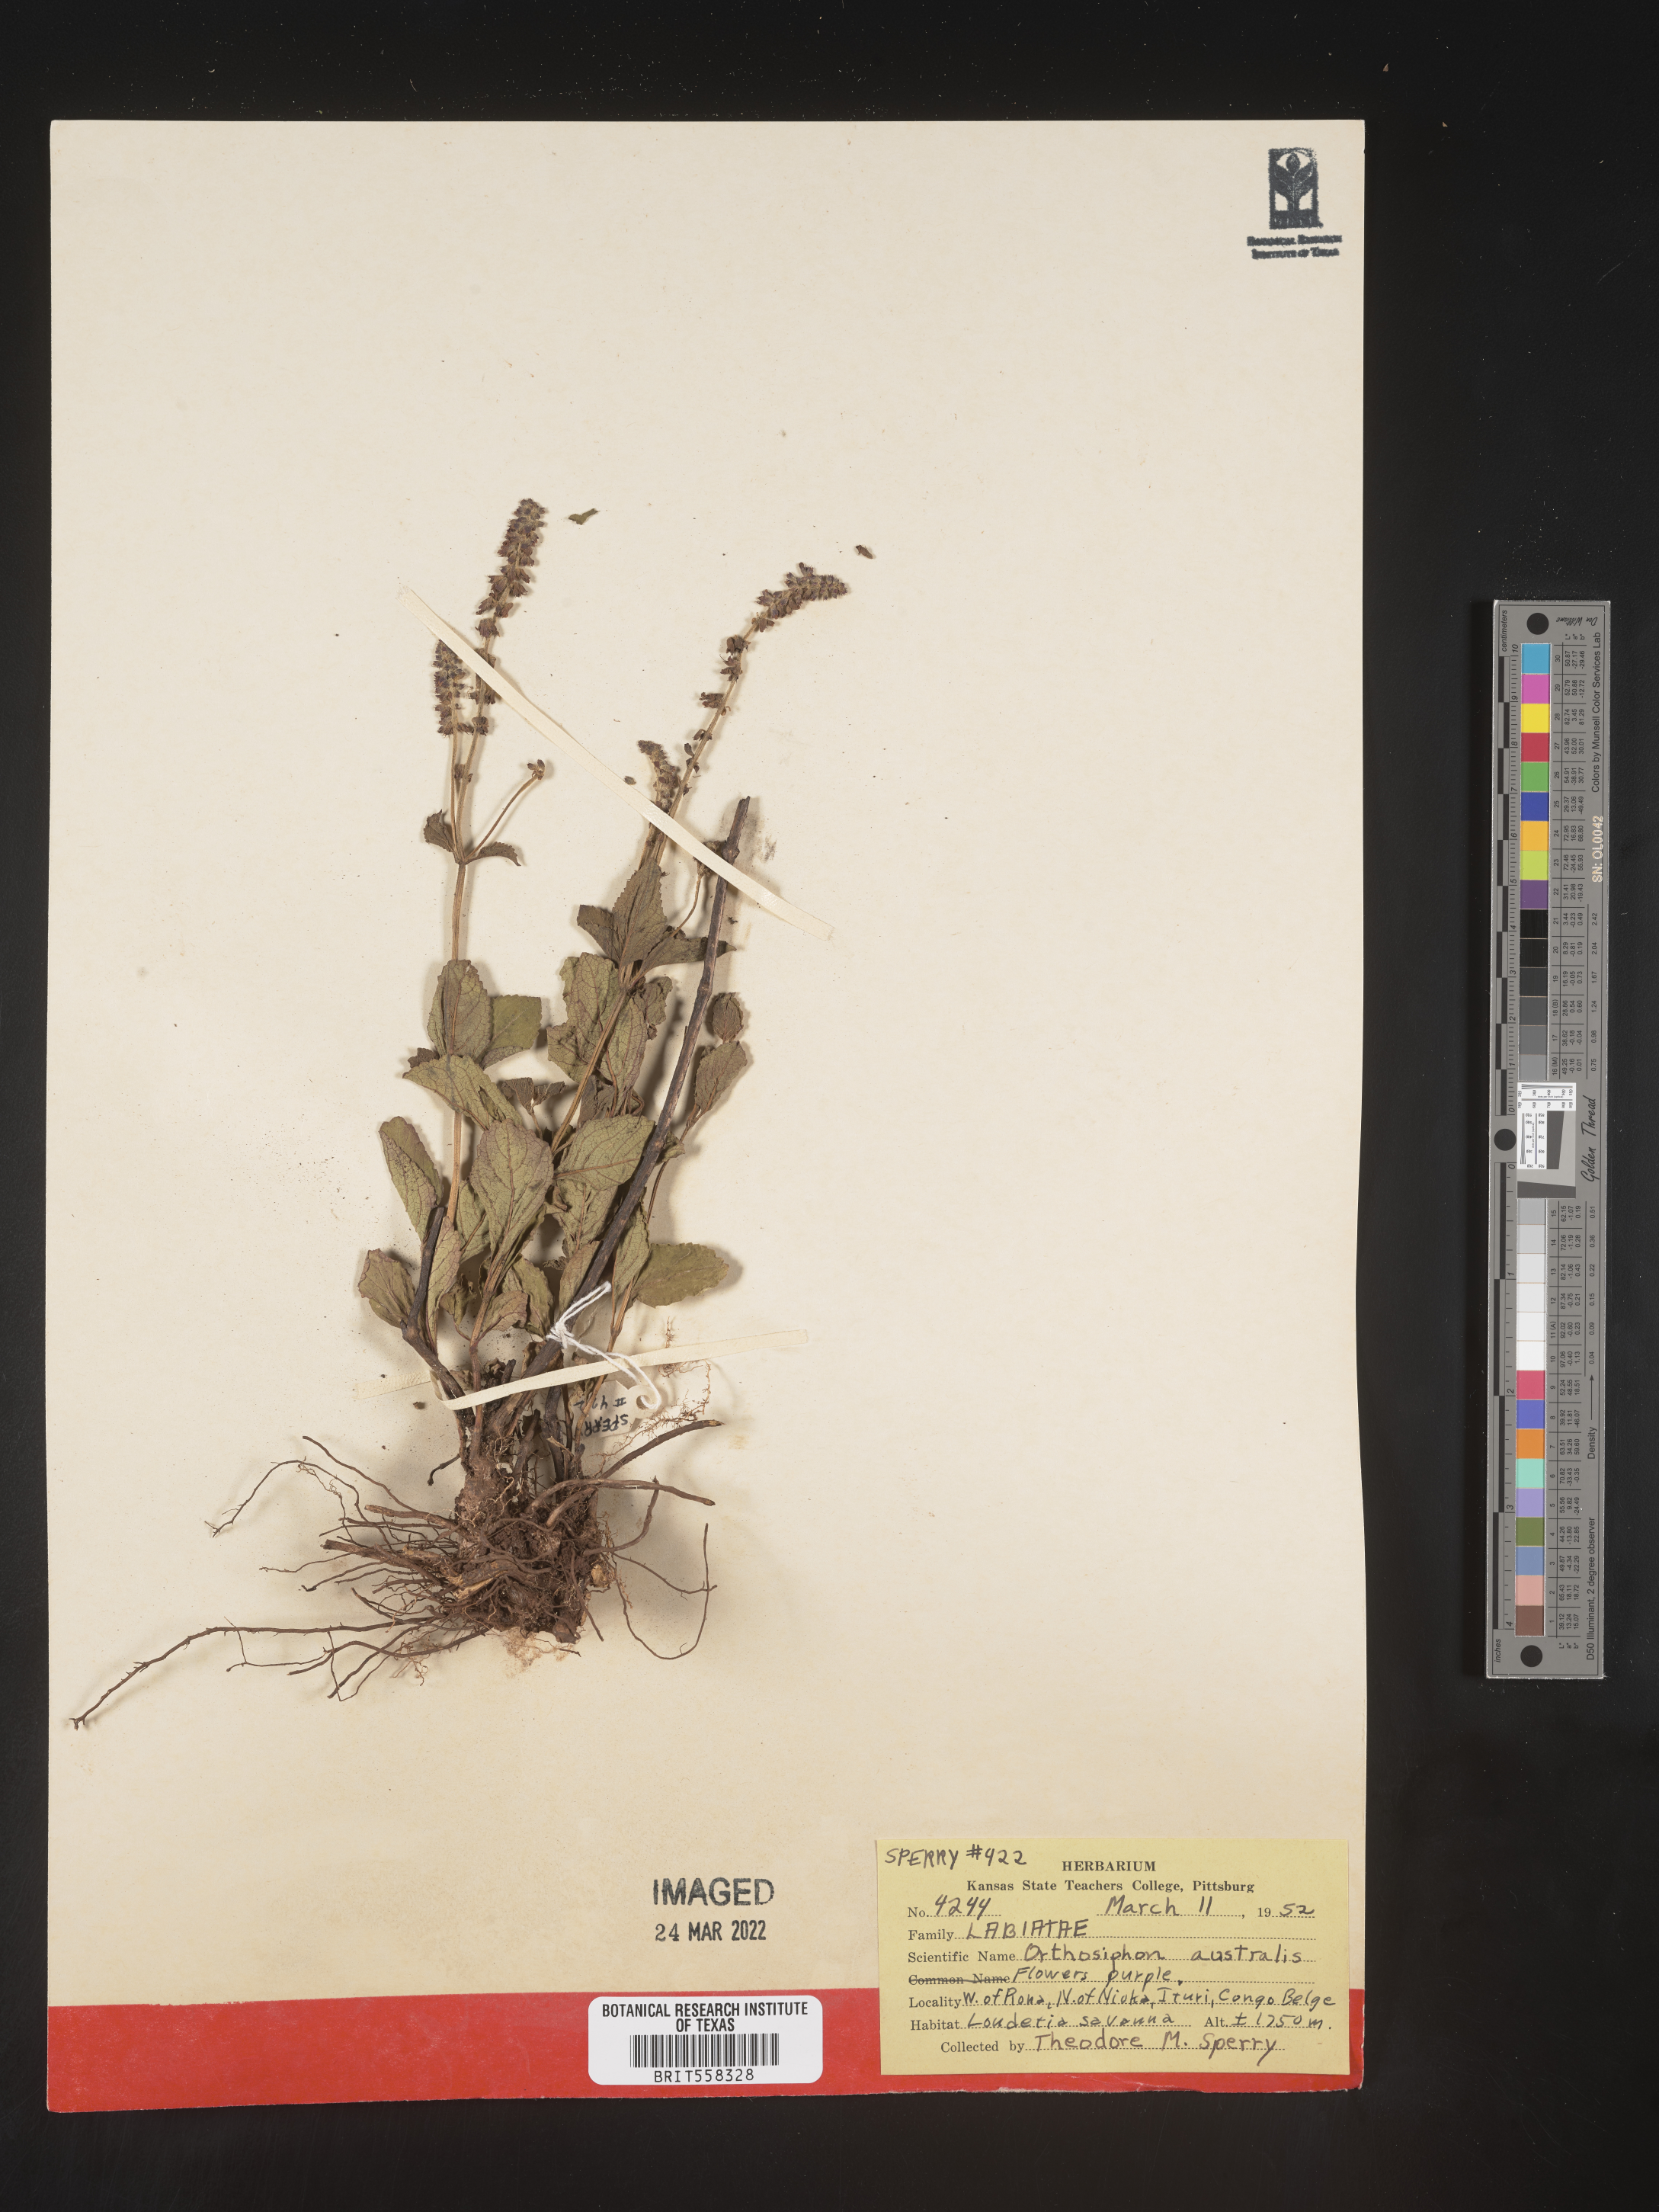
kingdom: Plantae
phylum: Tracheophyta
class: Magnoliopsida
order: Lamiales
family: Lamiaceae
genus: Orthosiphon
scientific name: Orthosiphon thymiflorus
